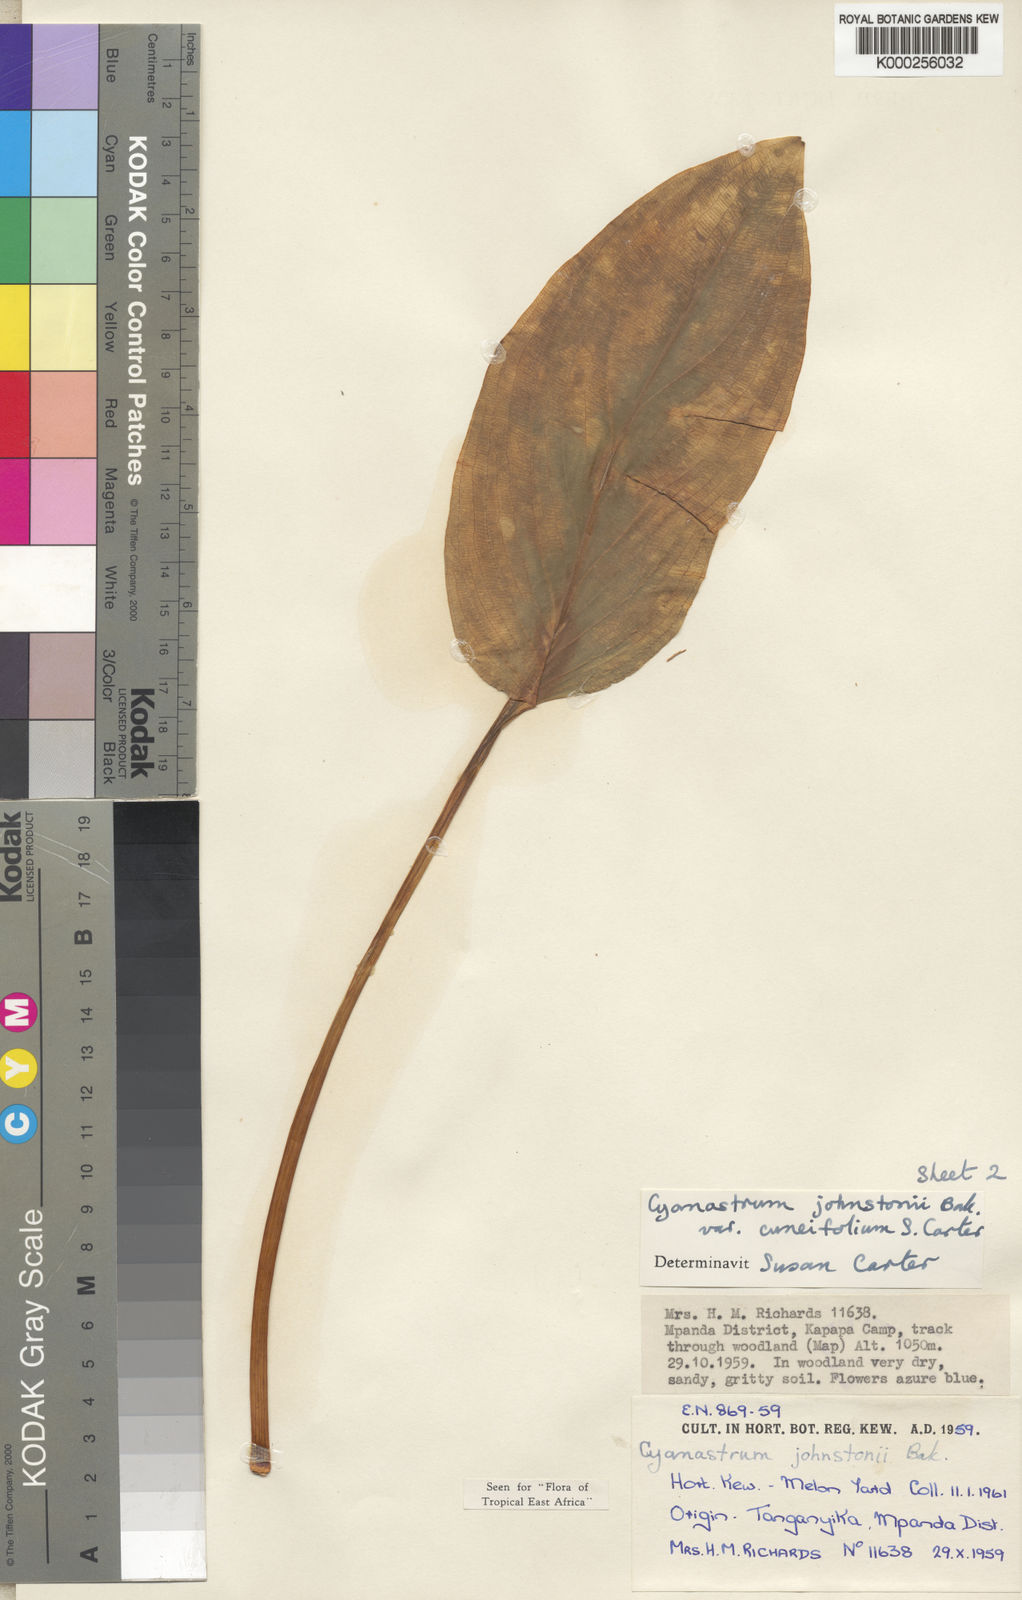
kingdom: Plantae
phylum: Tracheophyta
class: Liliopsida
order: Asparagales
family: Tecophilaeaceae
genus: Cyanastrum
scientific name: Cyanastrum johnstonii
